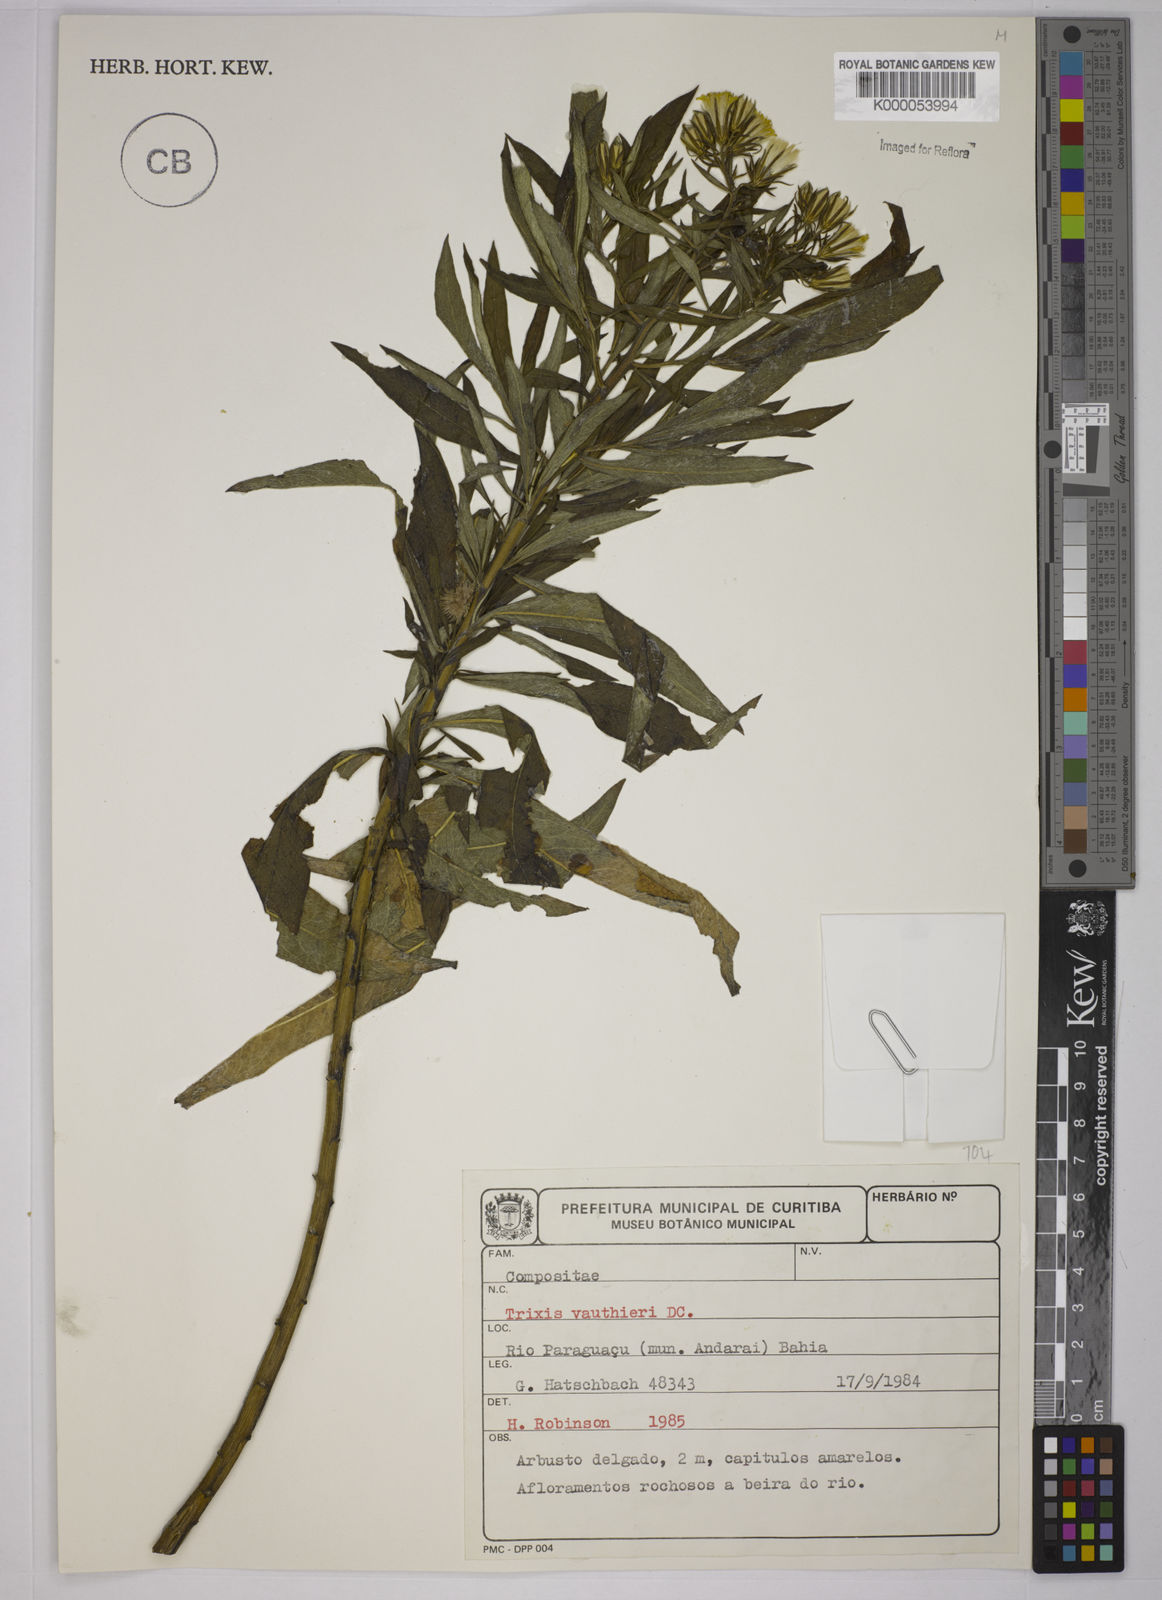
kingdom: Plantae
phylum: Tracheophyta
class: Magnoliopsida
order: Asterales
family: Asteraceae
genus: Trixis
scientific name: Trixis vauthieri
